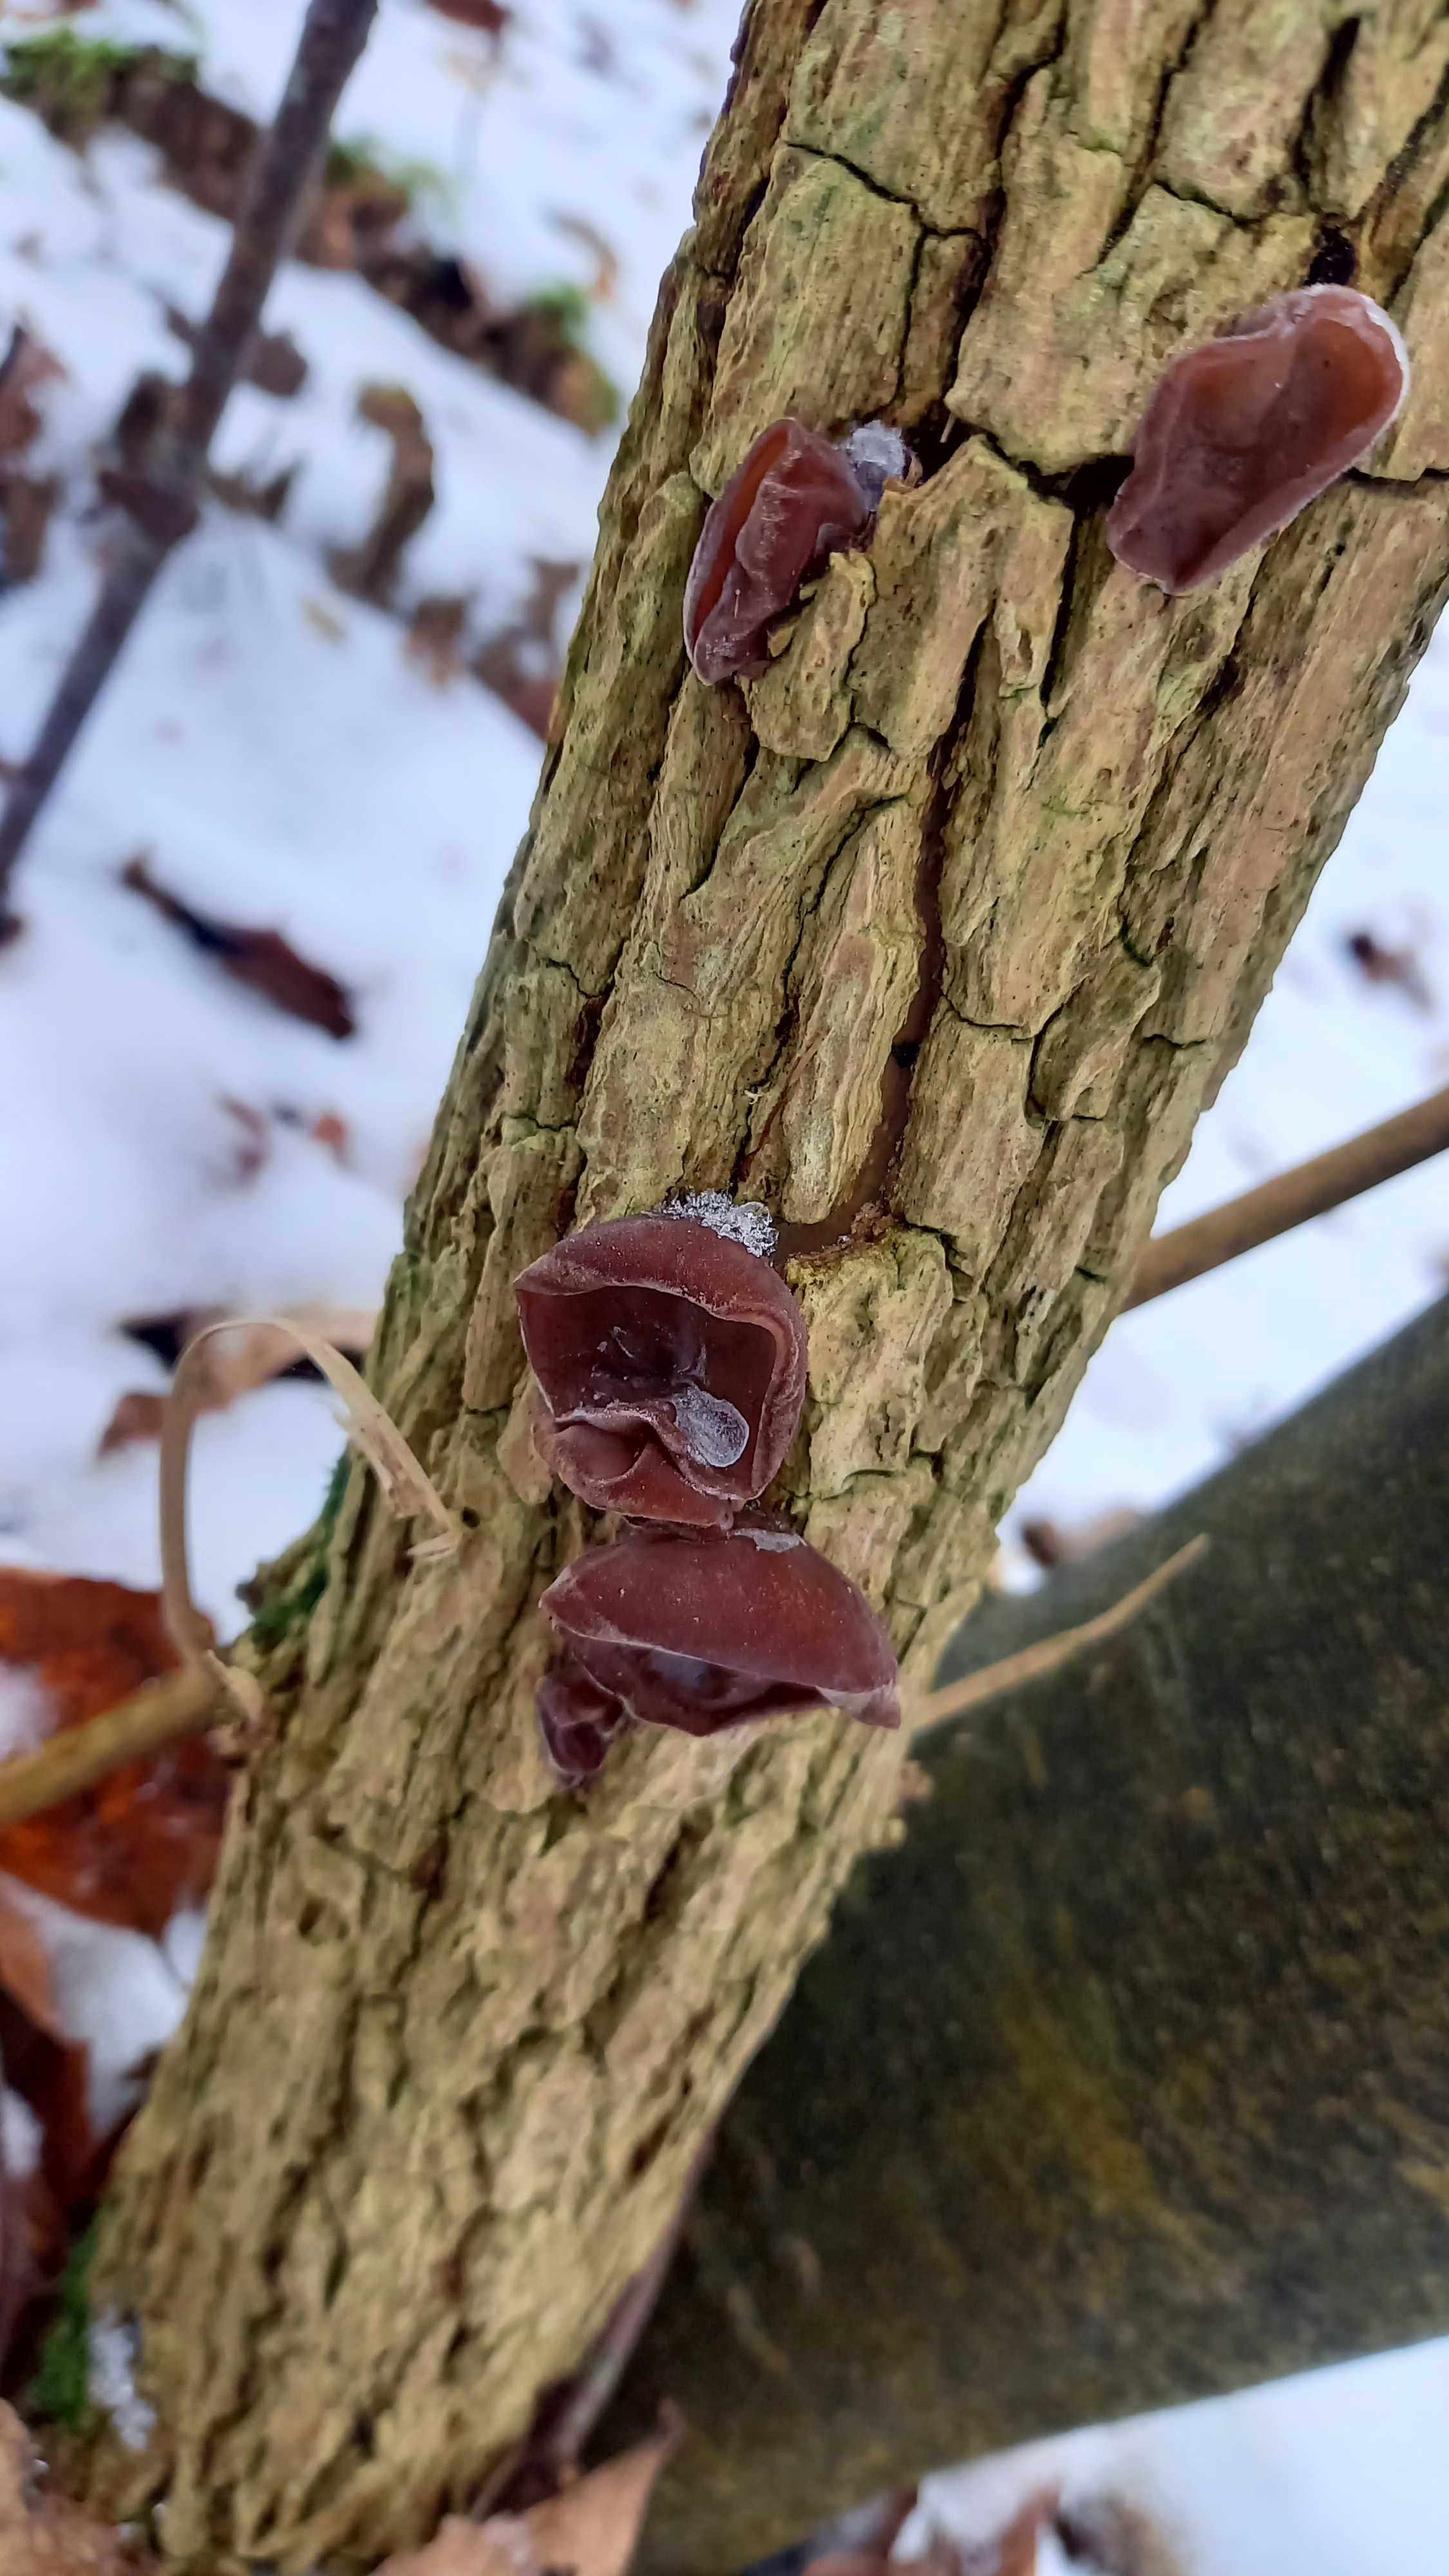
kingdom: Fungi
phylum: Basidiomycota
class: Agaricomycetes
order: Auriculariales
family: Auriculariaceae
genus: Auricularia
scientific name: Auricularia auricula-judae
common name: almindelig judasøre
